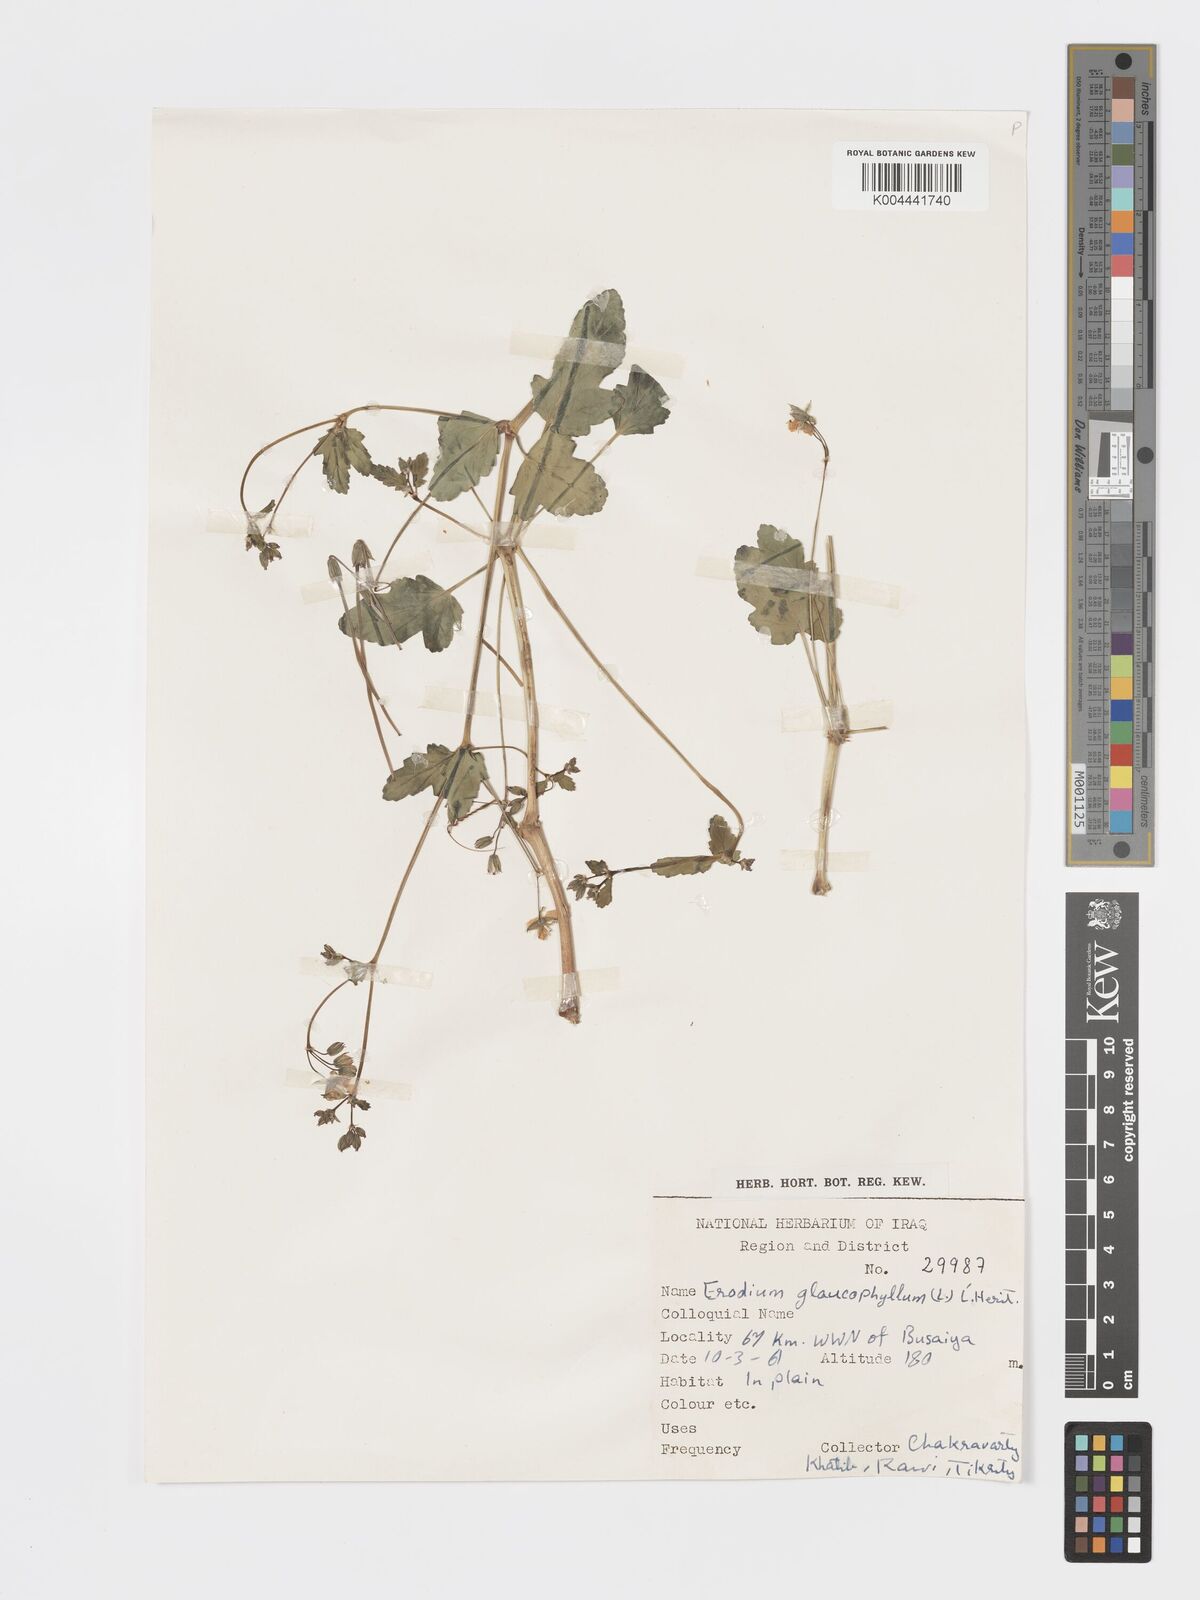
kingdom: Plantae
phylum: Tracheophyta
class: Magnoliopsida
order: Geraniales
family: Geraniaceae
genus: Erodium
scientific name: Erodium glaucophyllum
